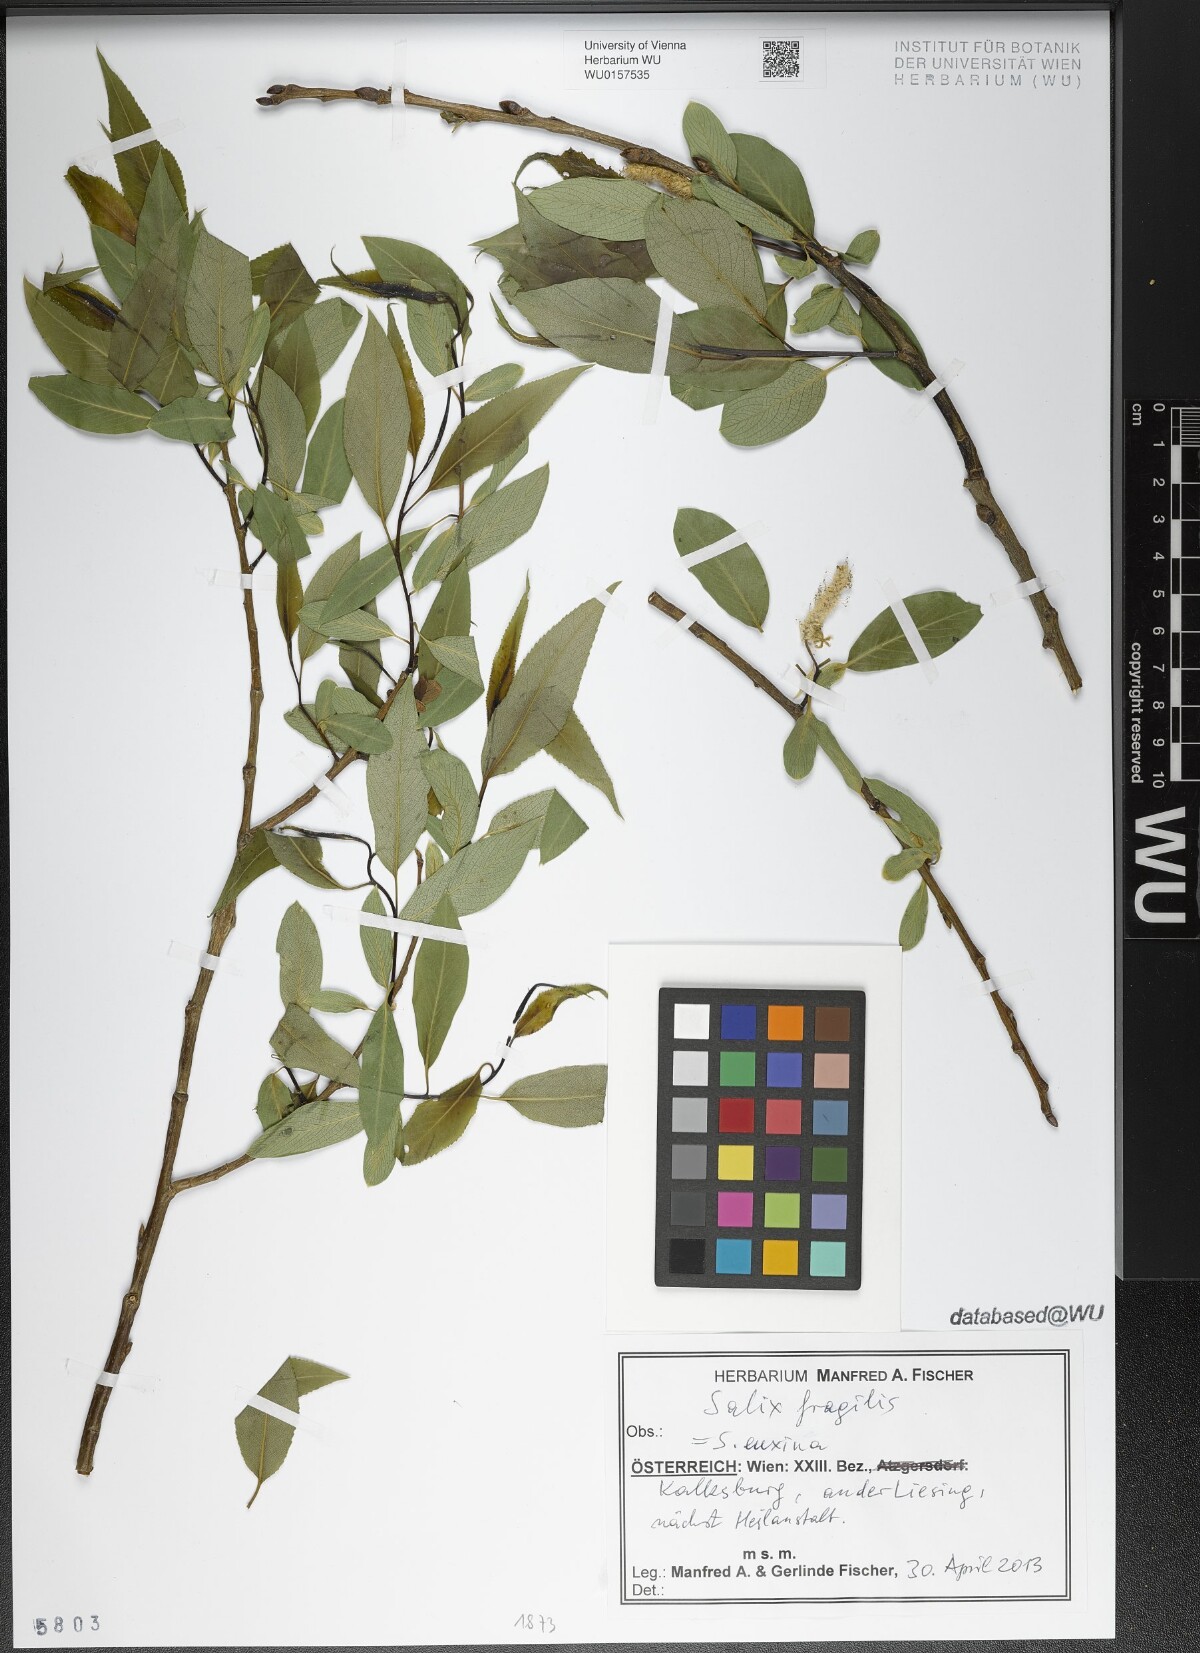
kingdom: Plantae
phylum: Tracheophyta
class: Magnoliopsida
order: Malpighiales
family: Salicaceae
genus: Salix
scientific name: Salix fragilis
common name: Crack willow
